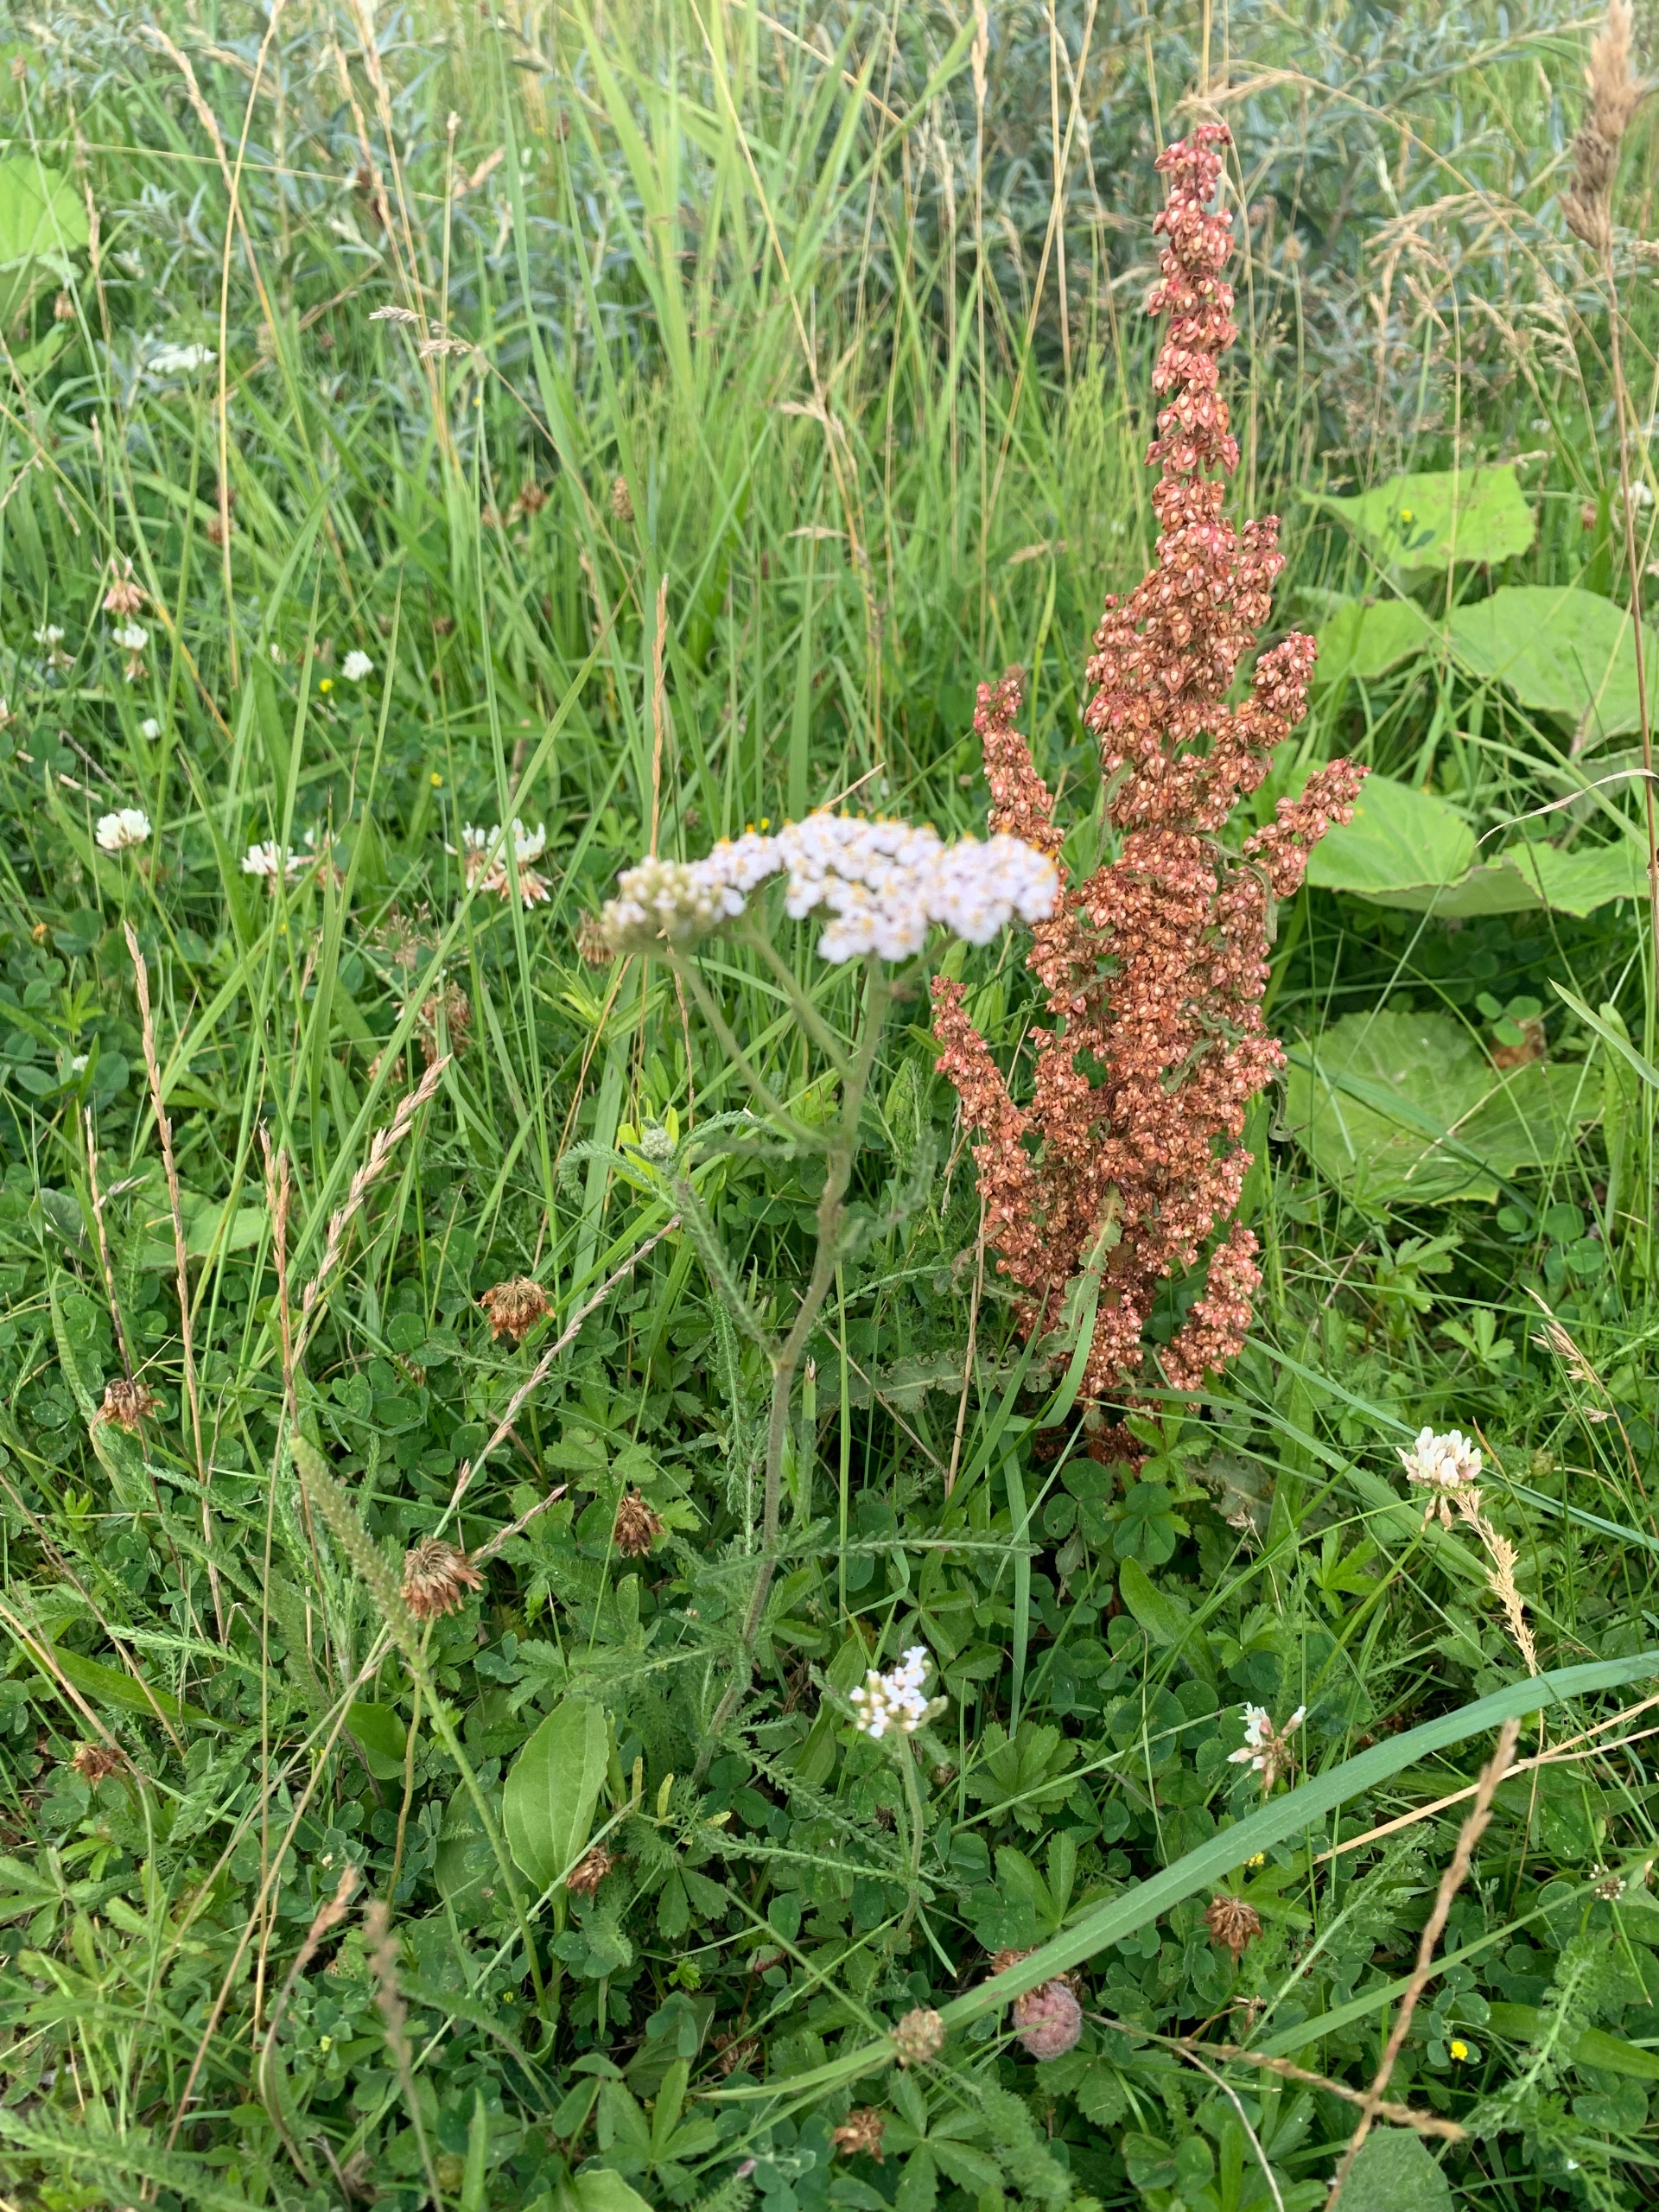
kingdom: Plantae
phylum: Tracheophyta
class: Magnoliopsida
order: Asterales
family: Asteraceae
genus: Achillea
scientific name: Achillea millefolium
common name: Almindelig røllike
